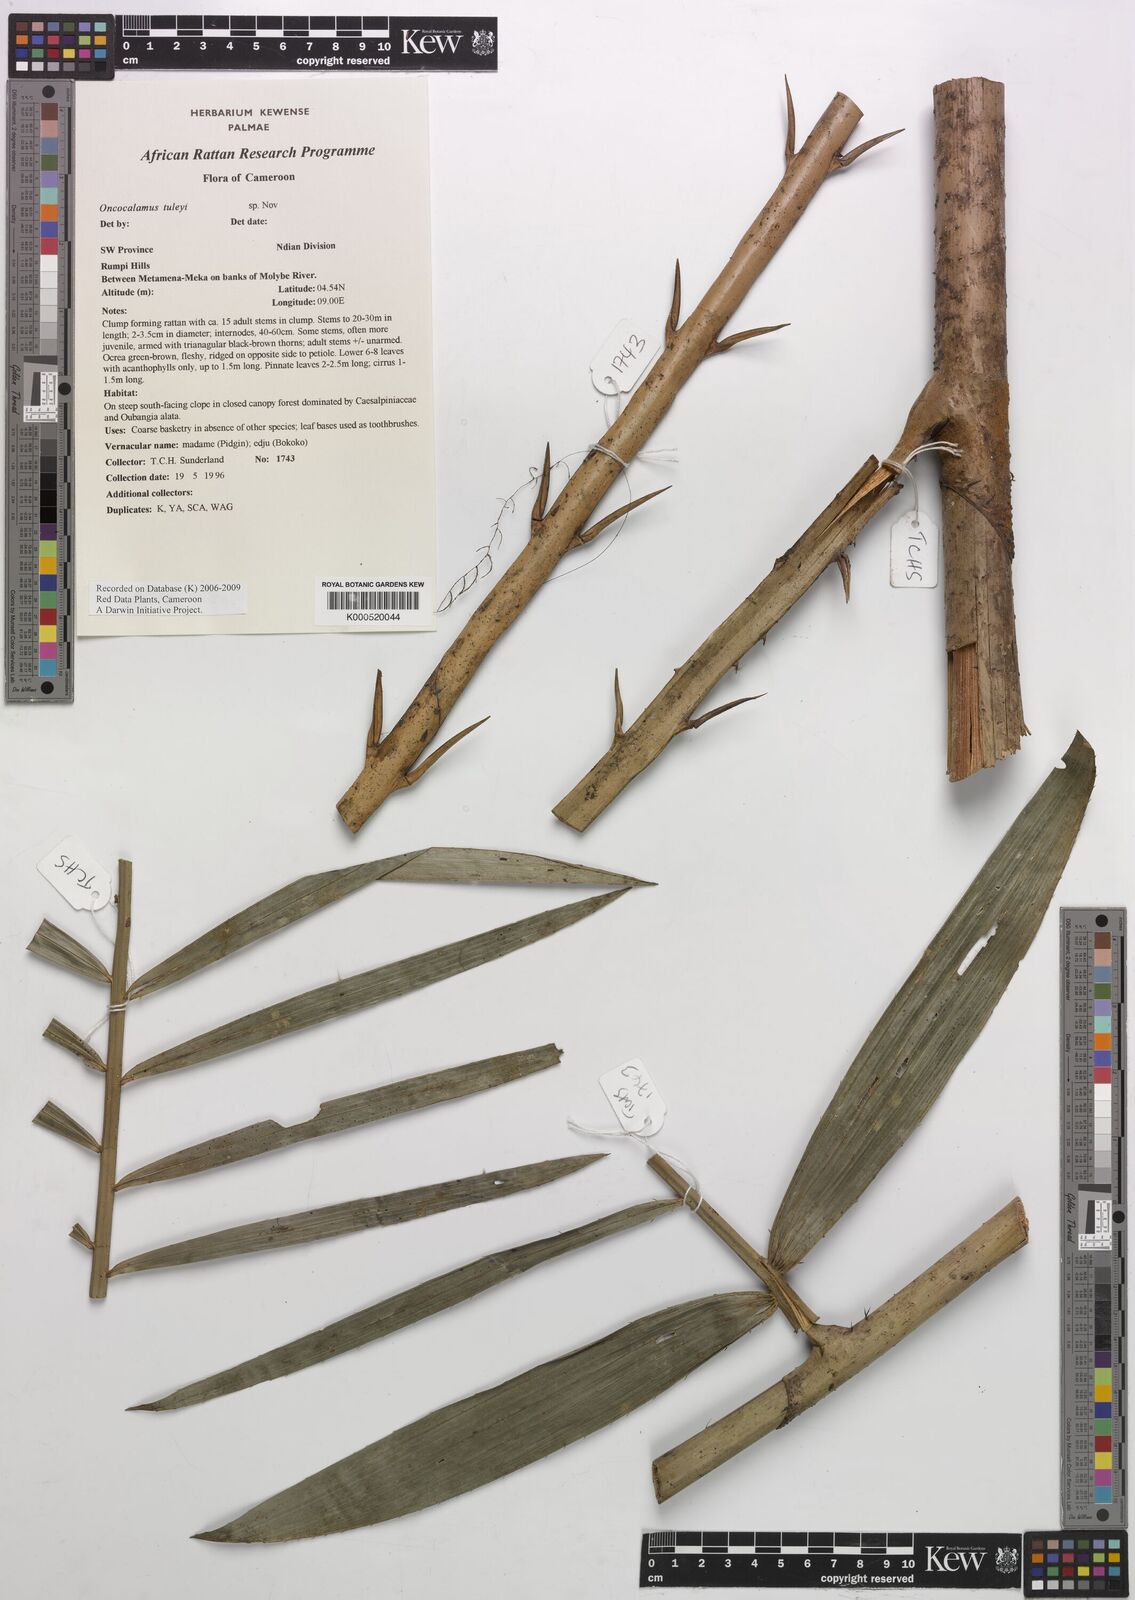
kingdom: Plantae
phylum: Tracheophyta
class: Liliopsida
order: Arecales
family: Arecaceae
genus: Oncocalamus
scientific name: Oncocalamus tuleyi
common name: Rattan
